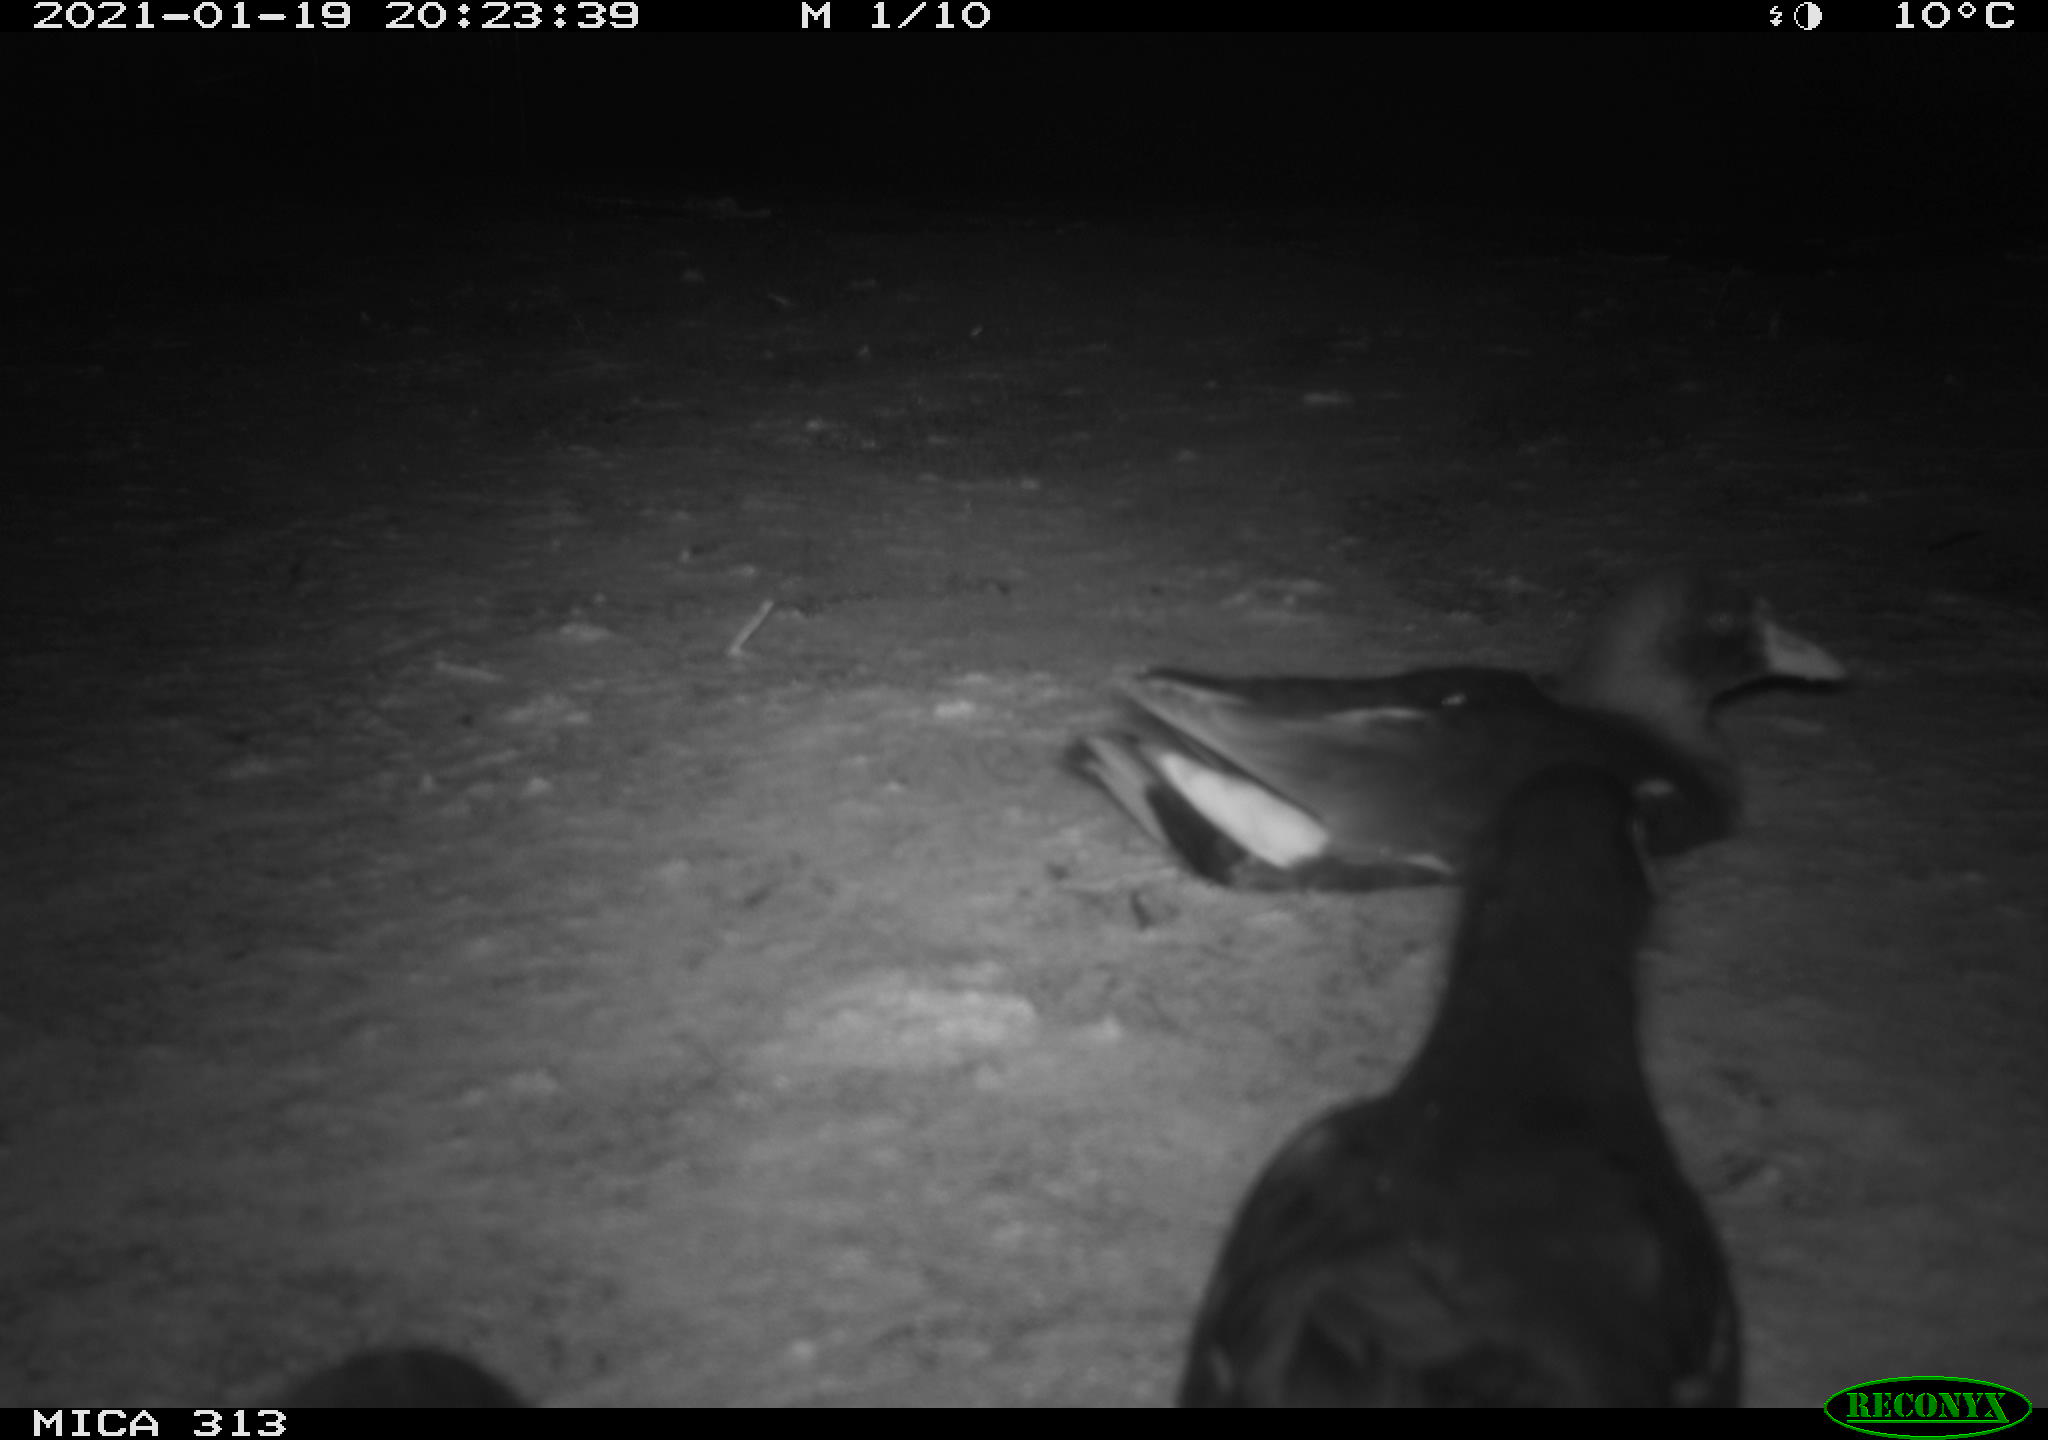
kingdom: Animalia
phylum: Chordata
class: Aves
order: Gruiformes
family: Rallidae
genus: Gallinula
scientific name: Gallinula chloropus
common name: Common moorhen
